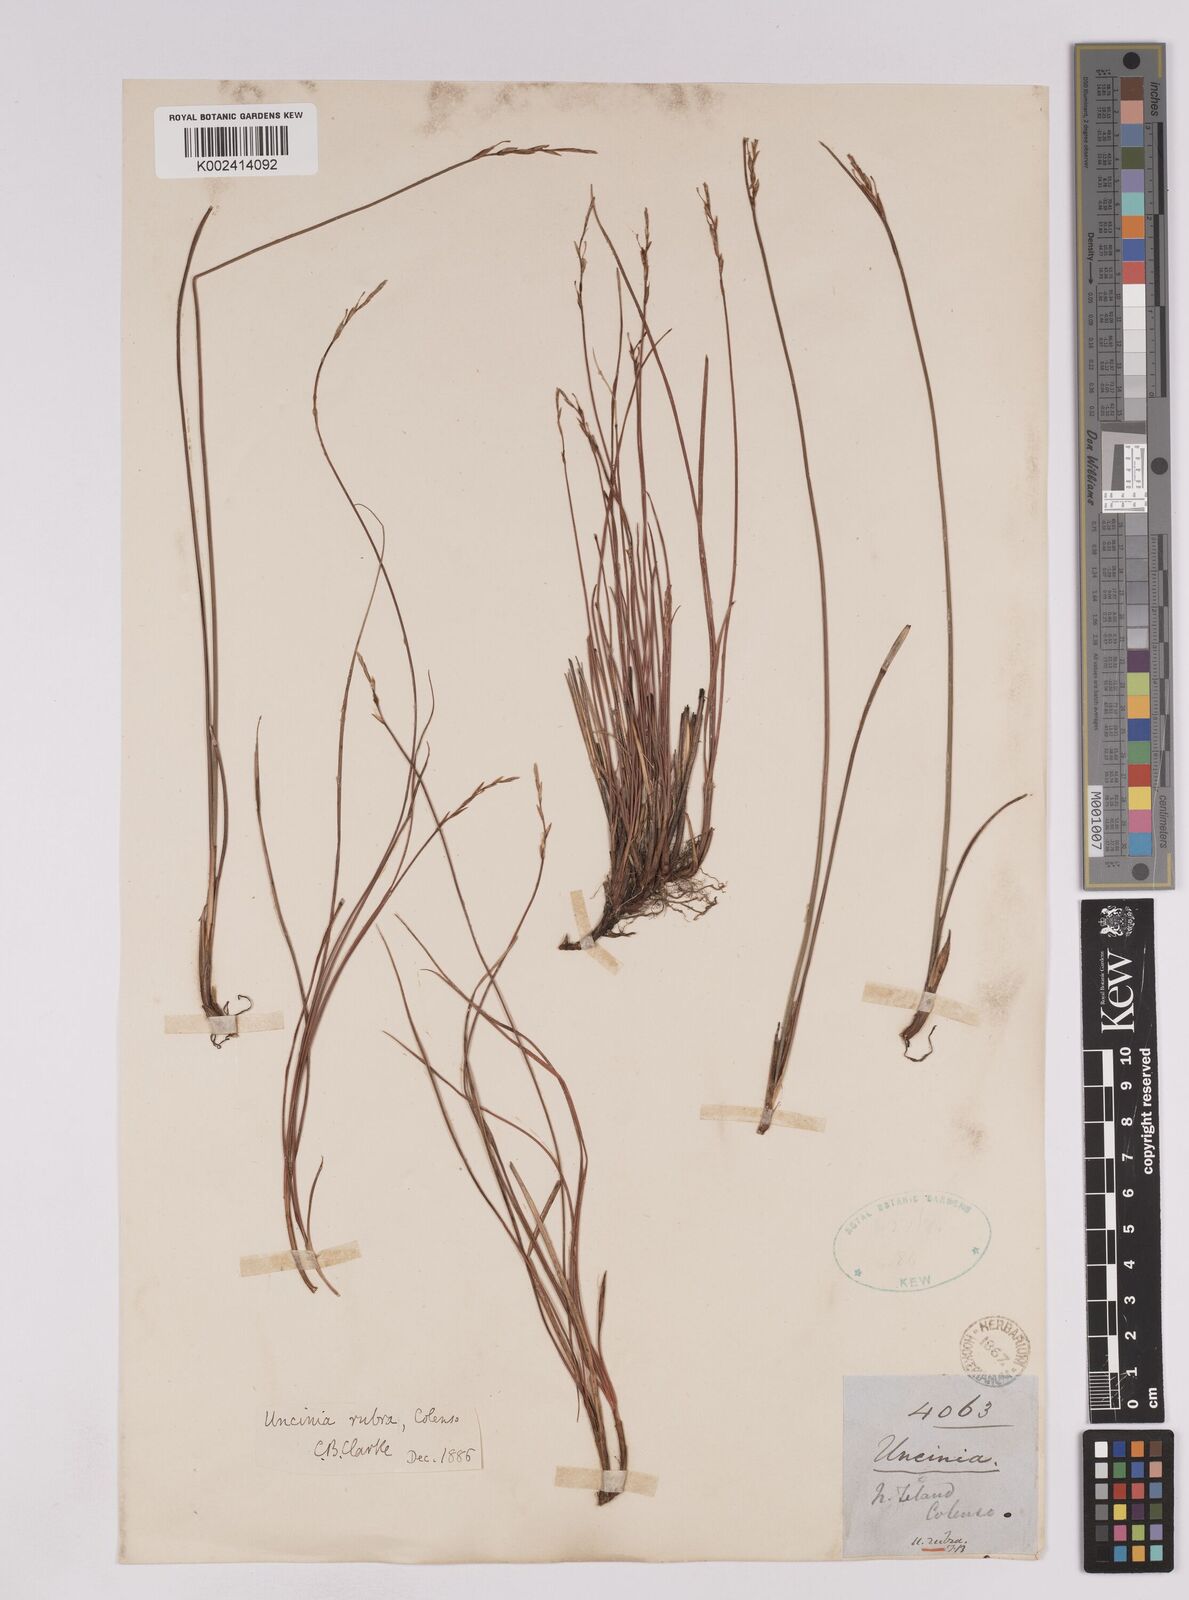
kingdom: Plantae
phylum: Tracheophyta
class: Liliopsida
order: Poales
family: Cyperaceae
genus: Carex
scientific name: Carex punicea
